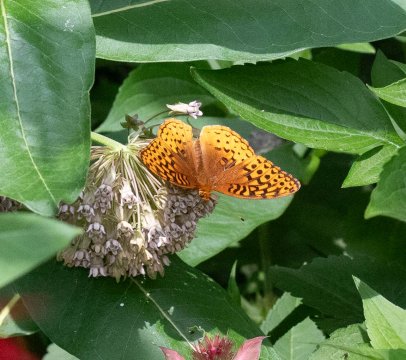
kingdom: Animalia
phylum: Arthropoda
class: Insecta
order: Lepidoptera
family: Nymphalidae
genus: Speyeria
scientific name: Speyeria cybele
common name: Great Spangled Fritillary
